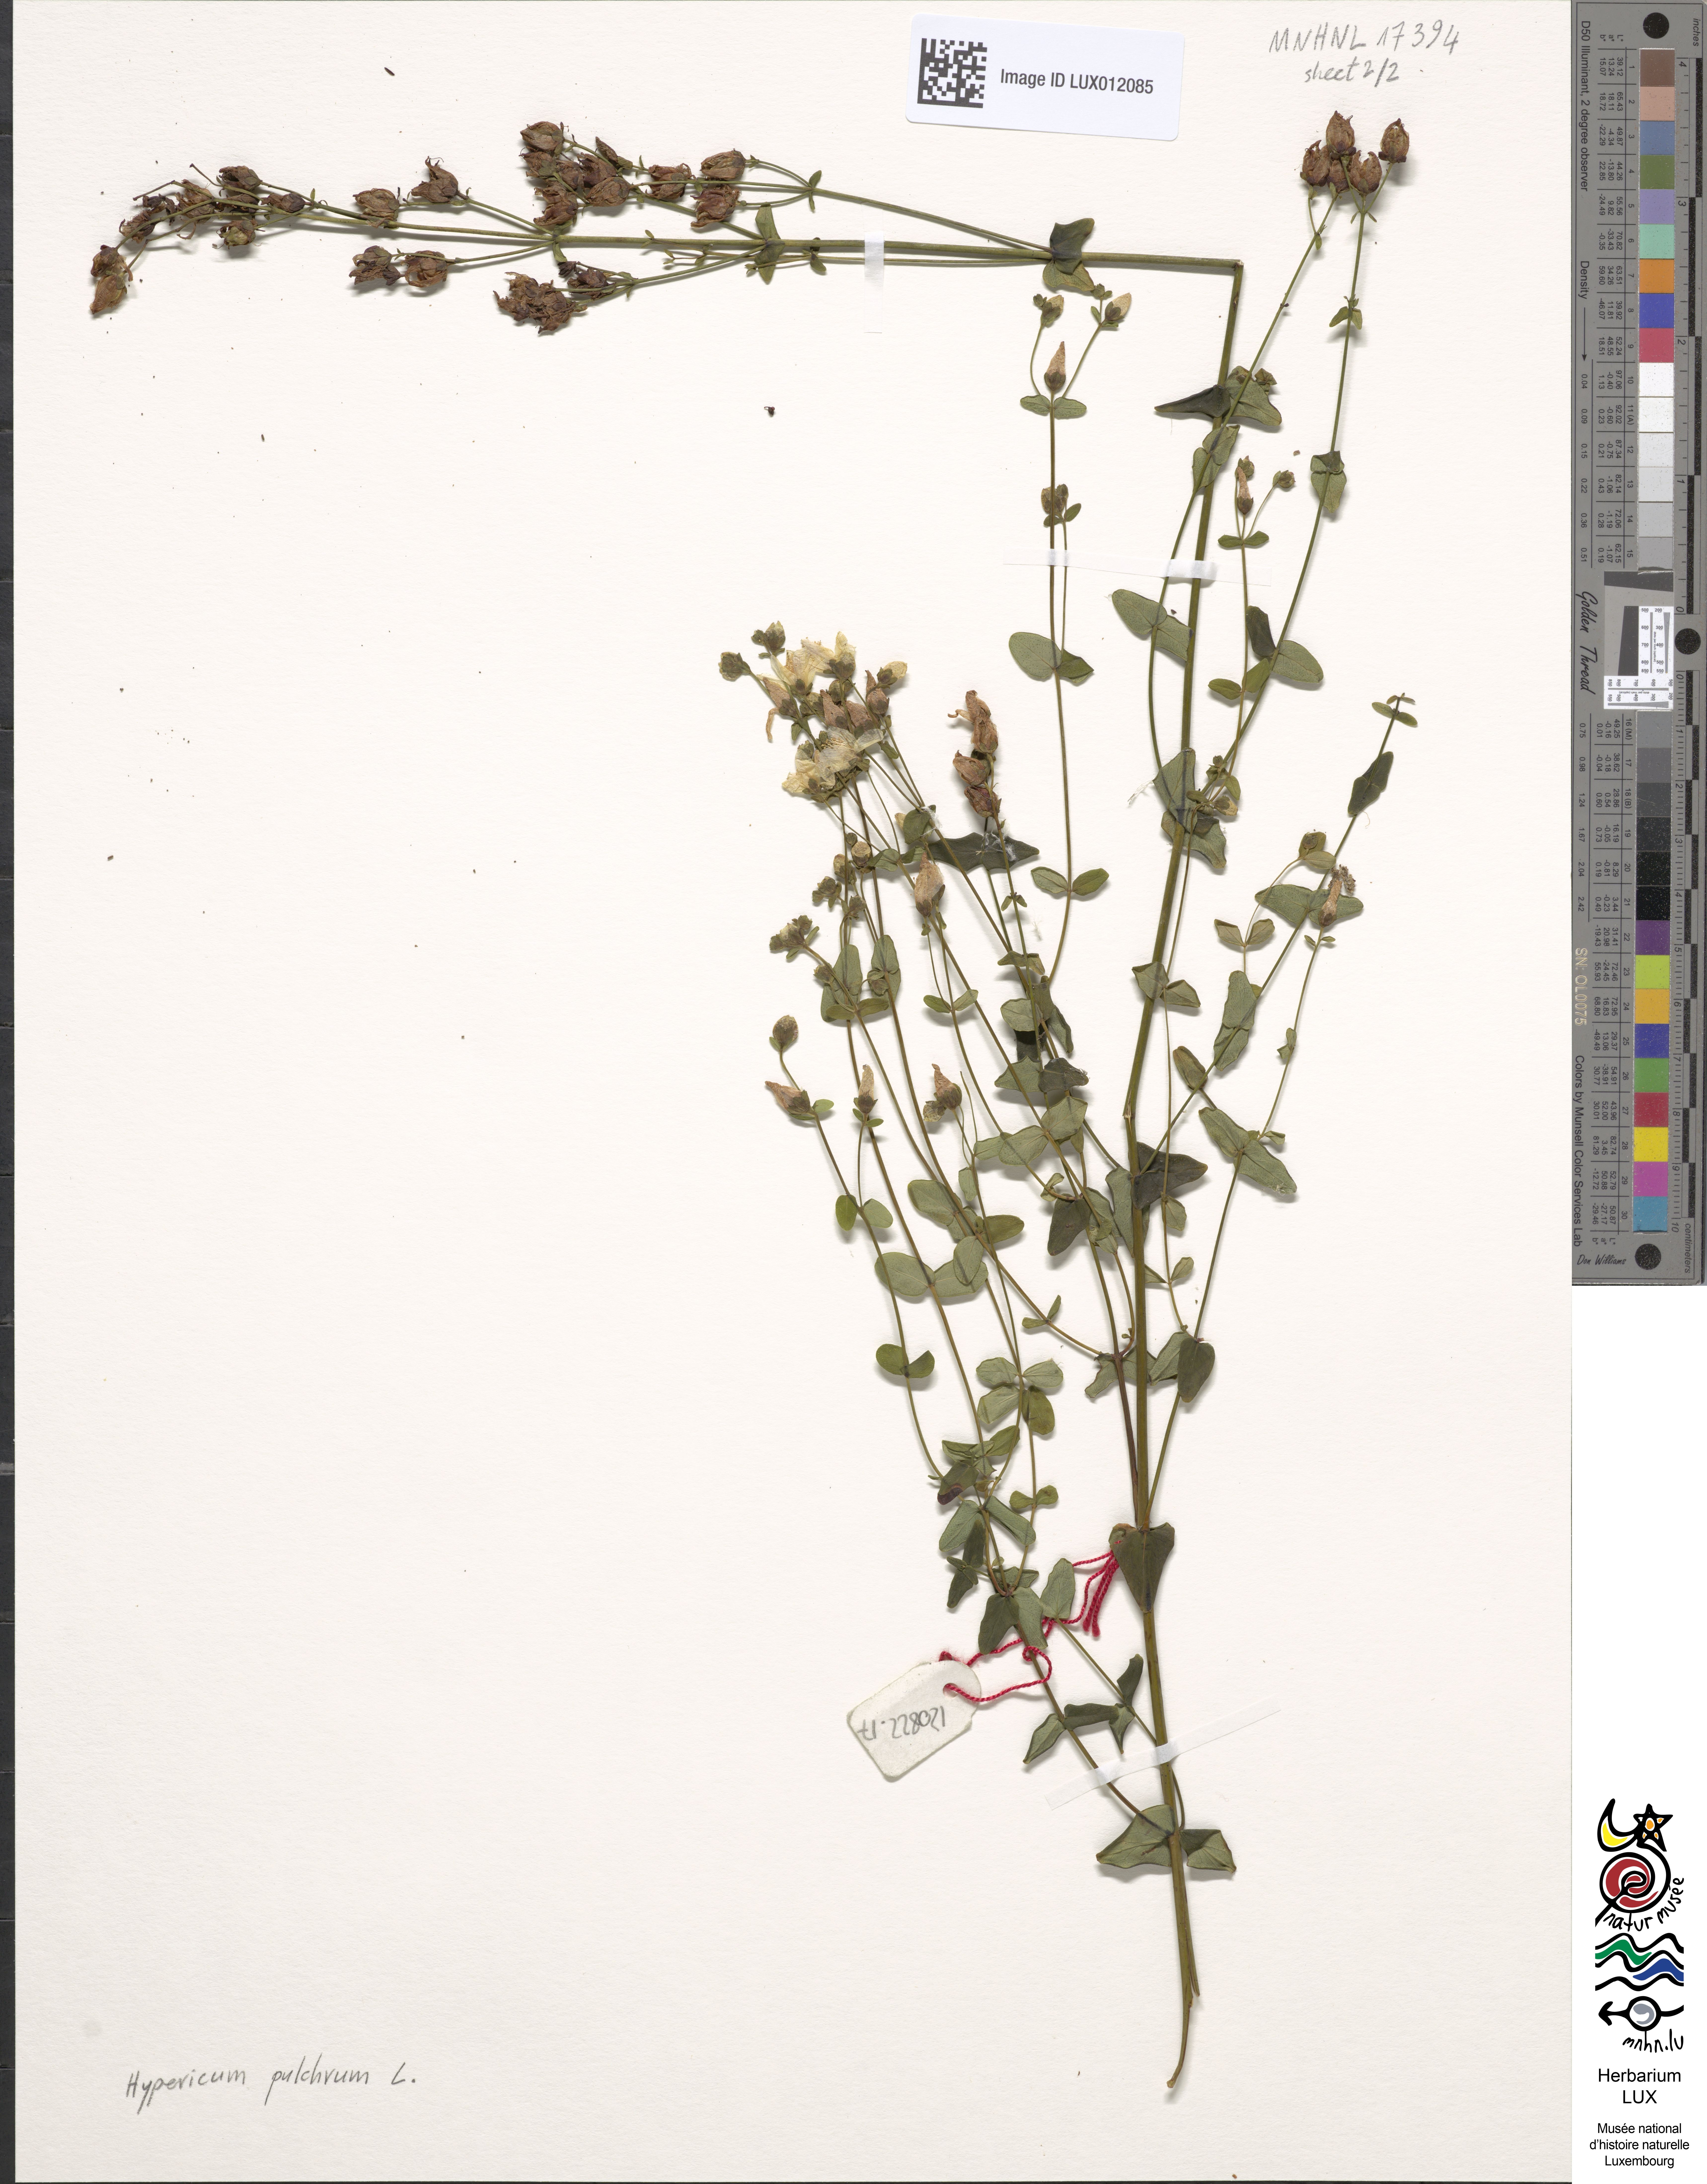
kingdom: Plantae
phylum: Tracheophyta
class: Magnoliopsida
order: Malpighiales
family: Hypericaceae
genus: Hypericum
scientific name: Hypericum pulchrum
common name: Slender st. john's-wort
